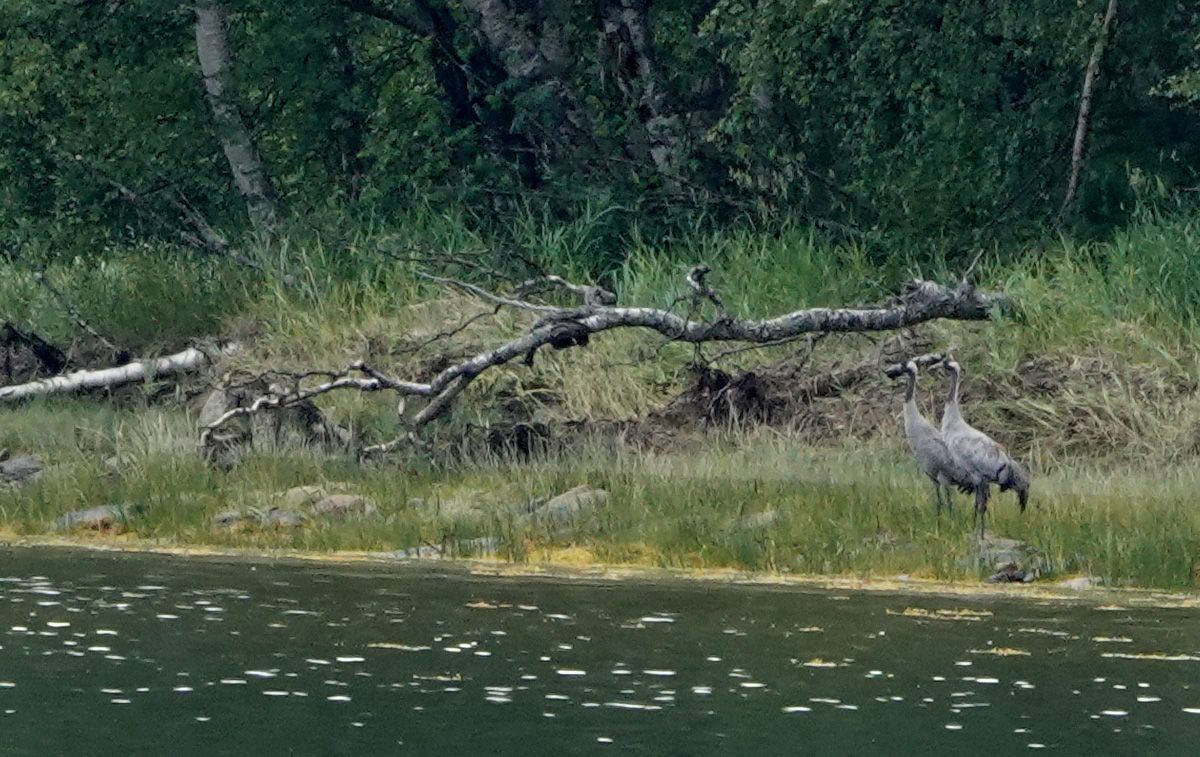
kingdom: Animalia
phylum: Chordata
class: Aves
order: Gruiformes
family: Gruidae
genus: Grus
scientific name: Grus grus
